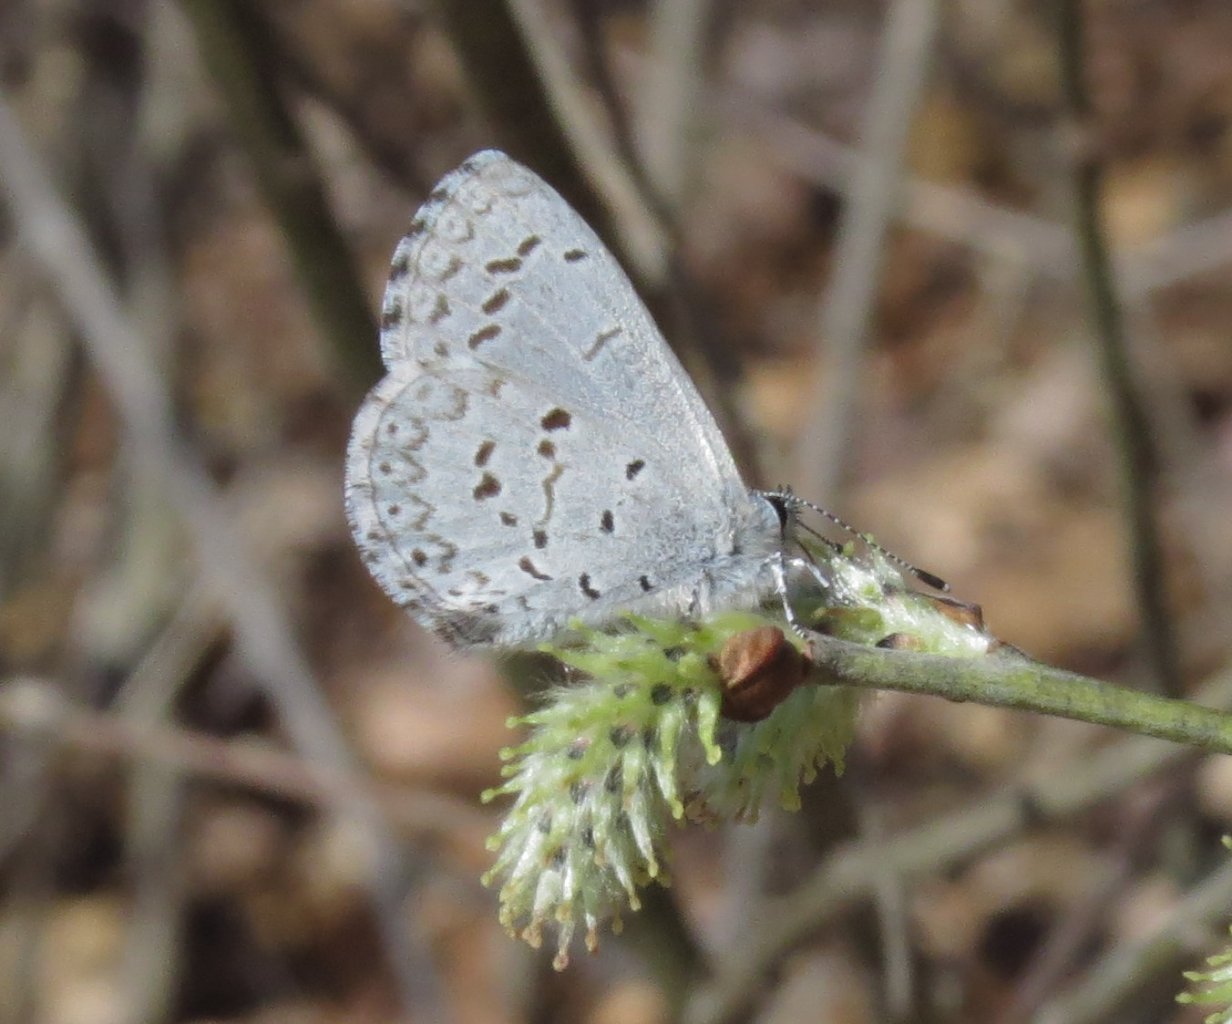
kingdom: Animalia
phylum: Arthropoda
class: Insecta
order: Lepidoptera
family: Lycaenidae
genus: Celastrina
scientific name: Celastrina
